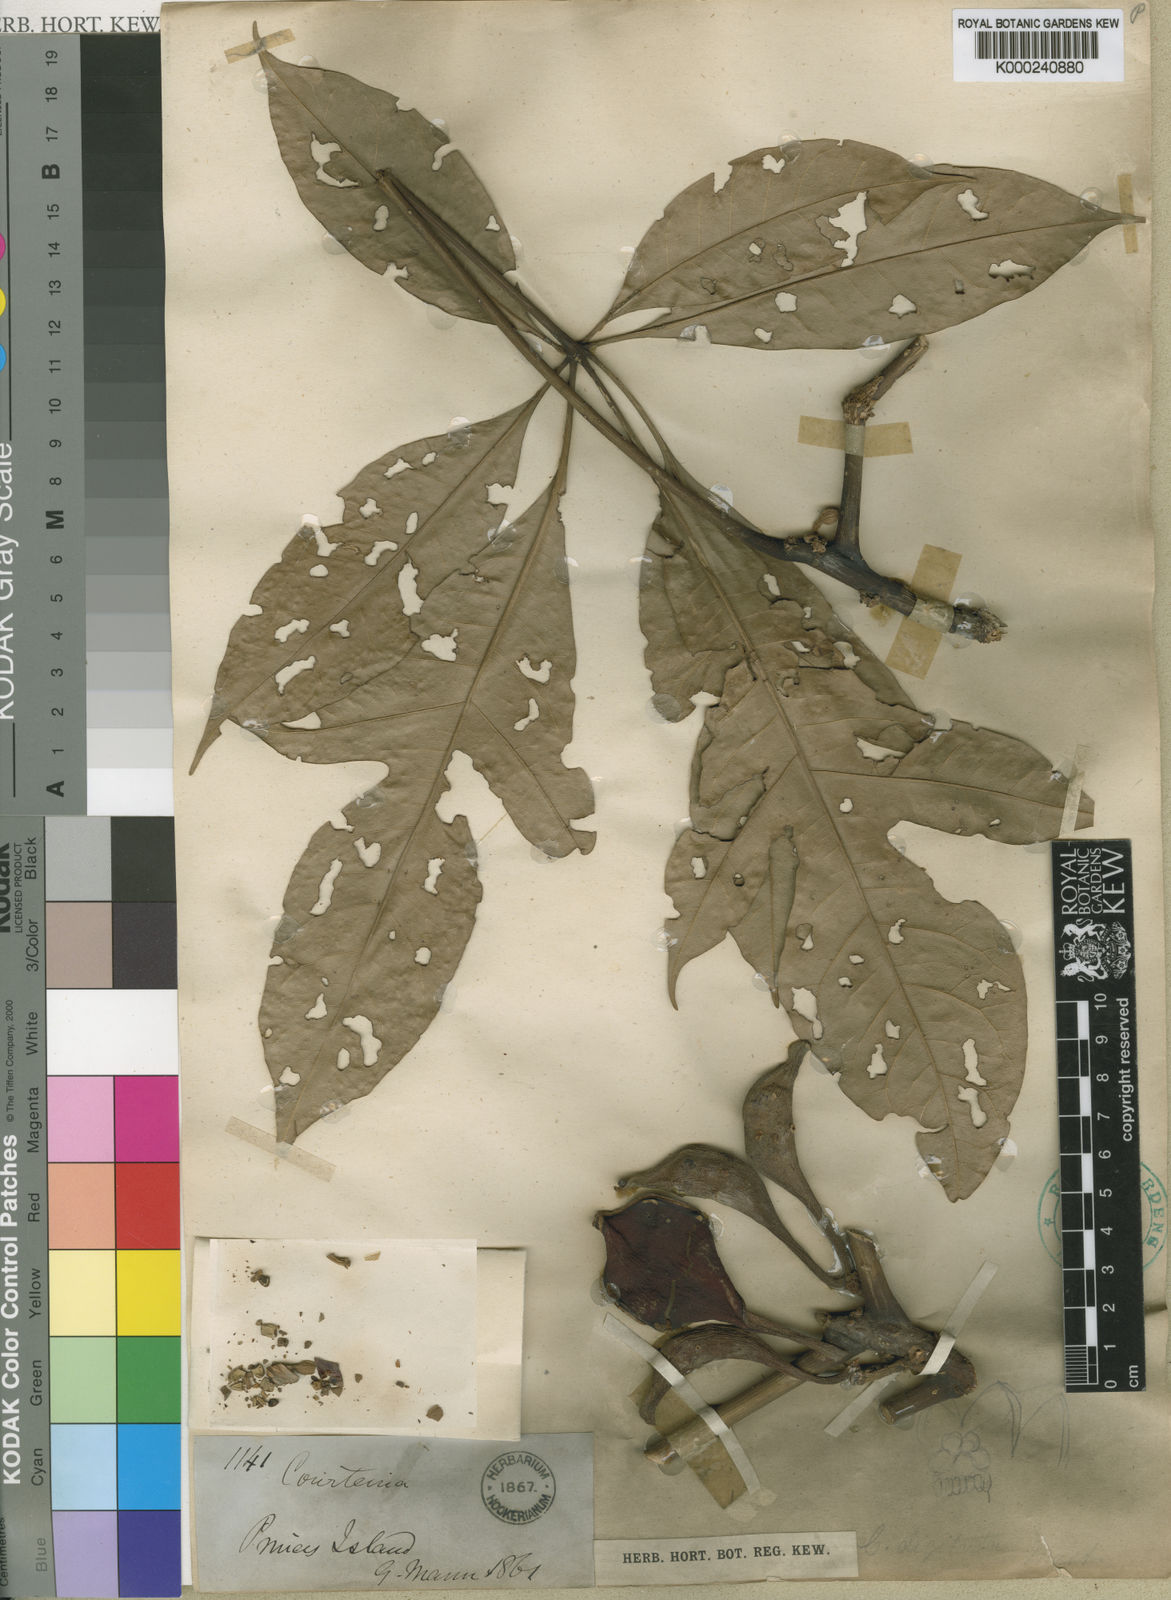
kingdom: Plantae
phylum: Tracheophyta
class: Magnoliopsida
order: Malvales
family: Malvaceae
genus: Cola
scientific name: Cola digitata
